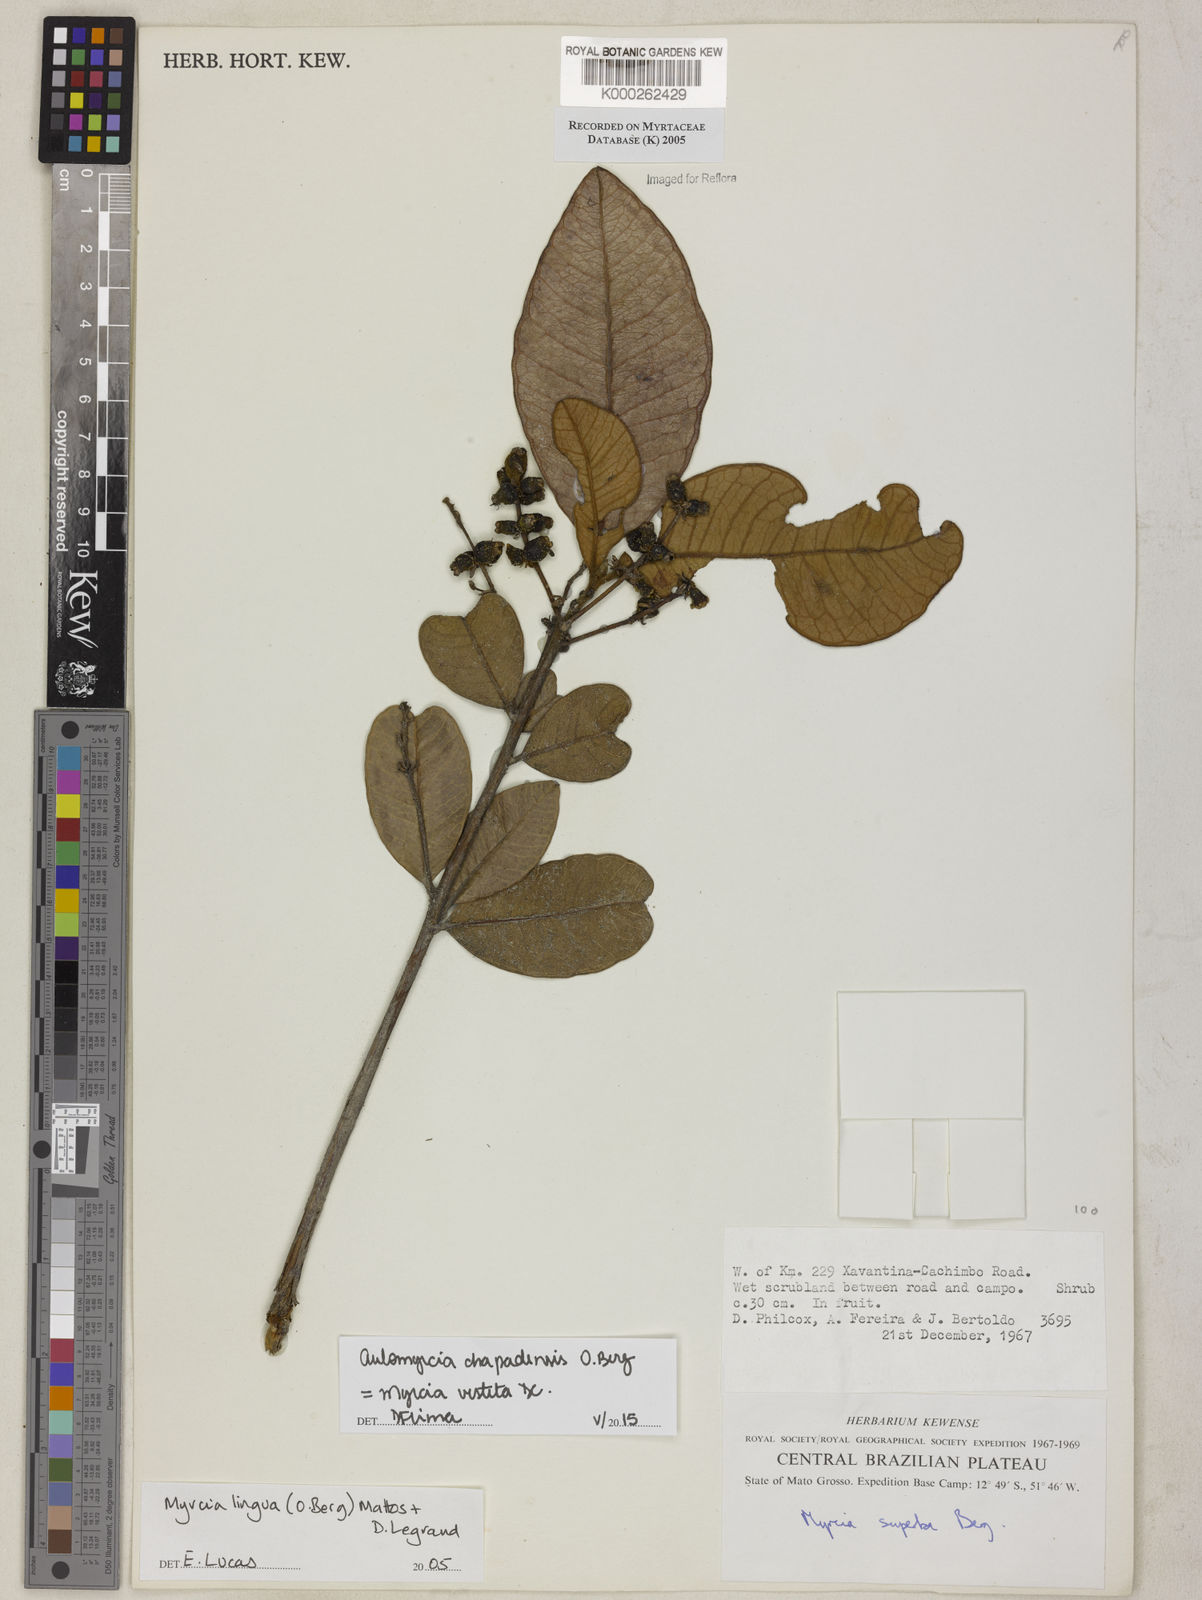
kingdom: Plantae
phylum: Tracheophyta
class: Magnoliopsida
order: Myrtales
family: Myrtaceae
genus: Myrcia
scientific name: Myrcia guianensis
